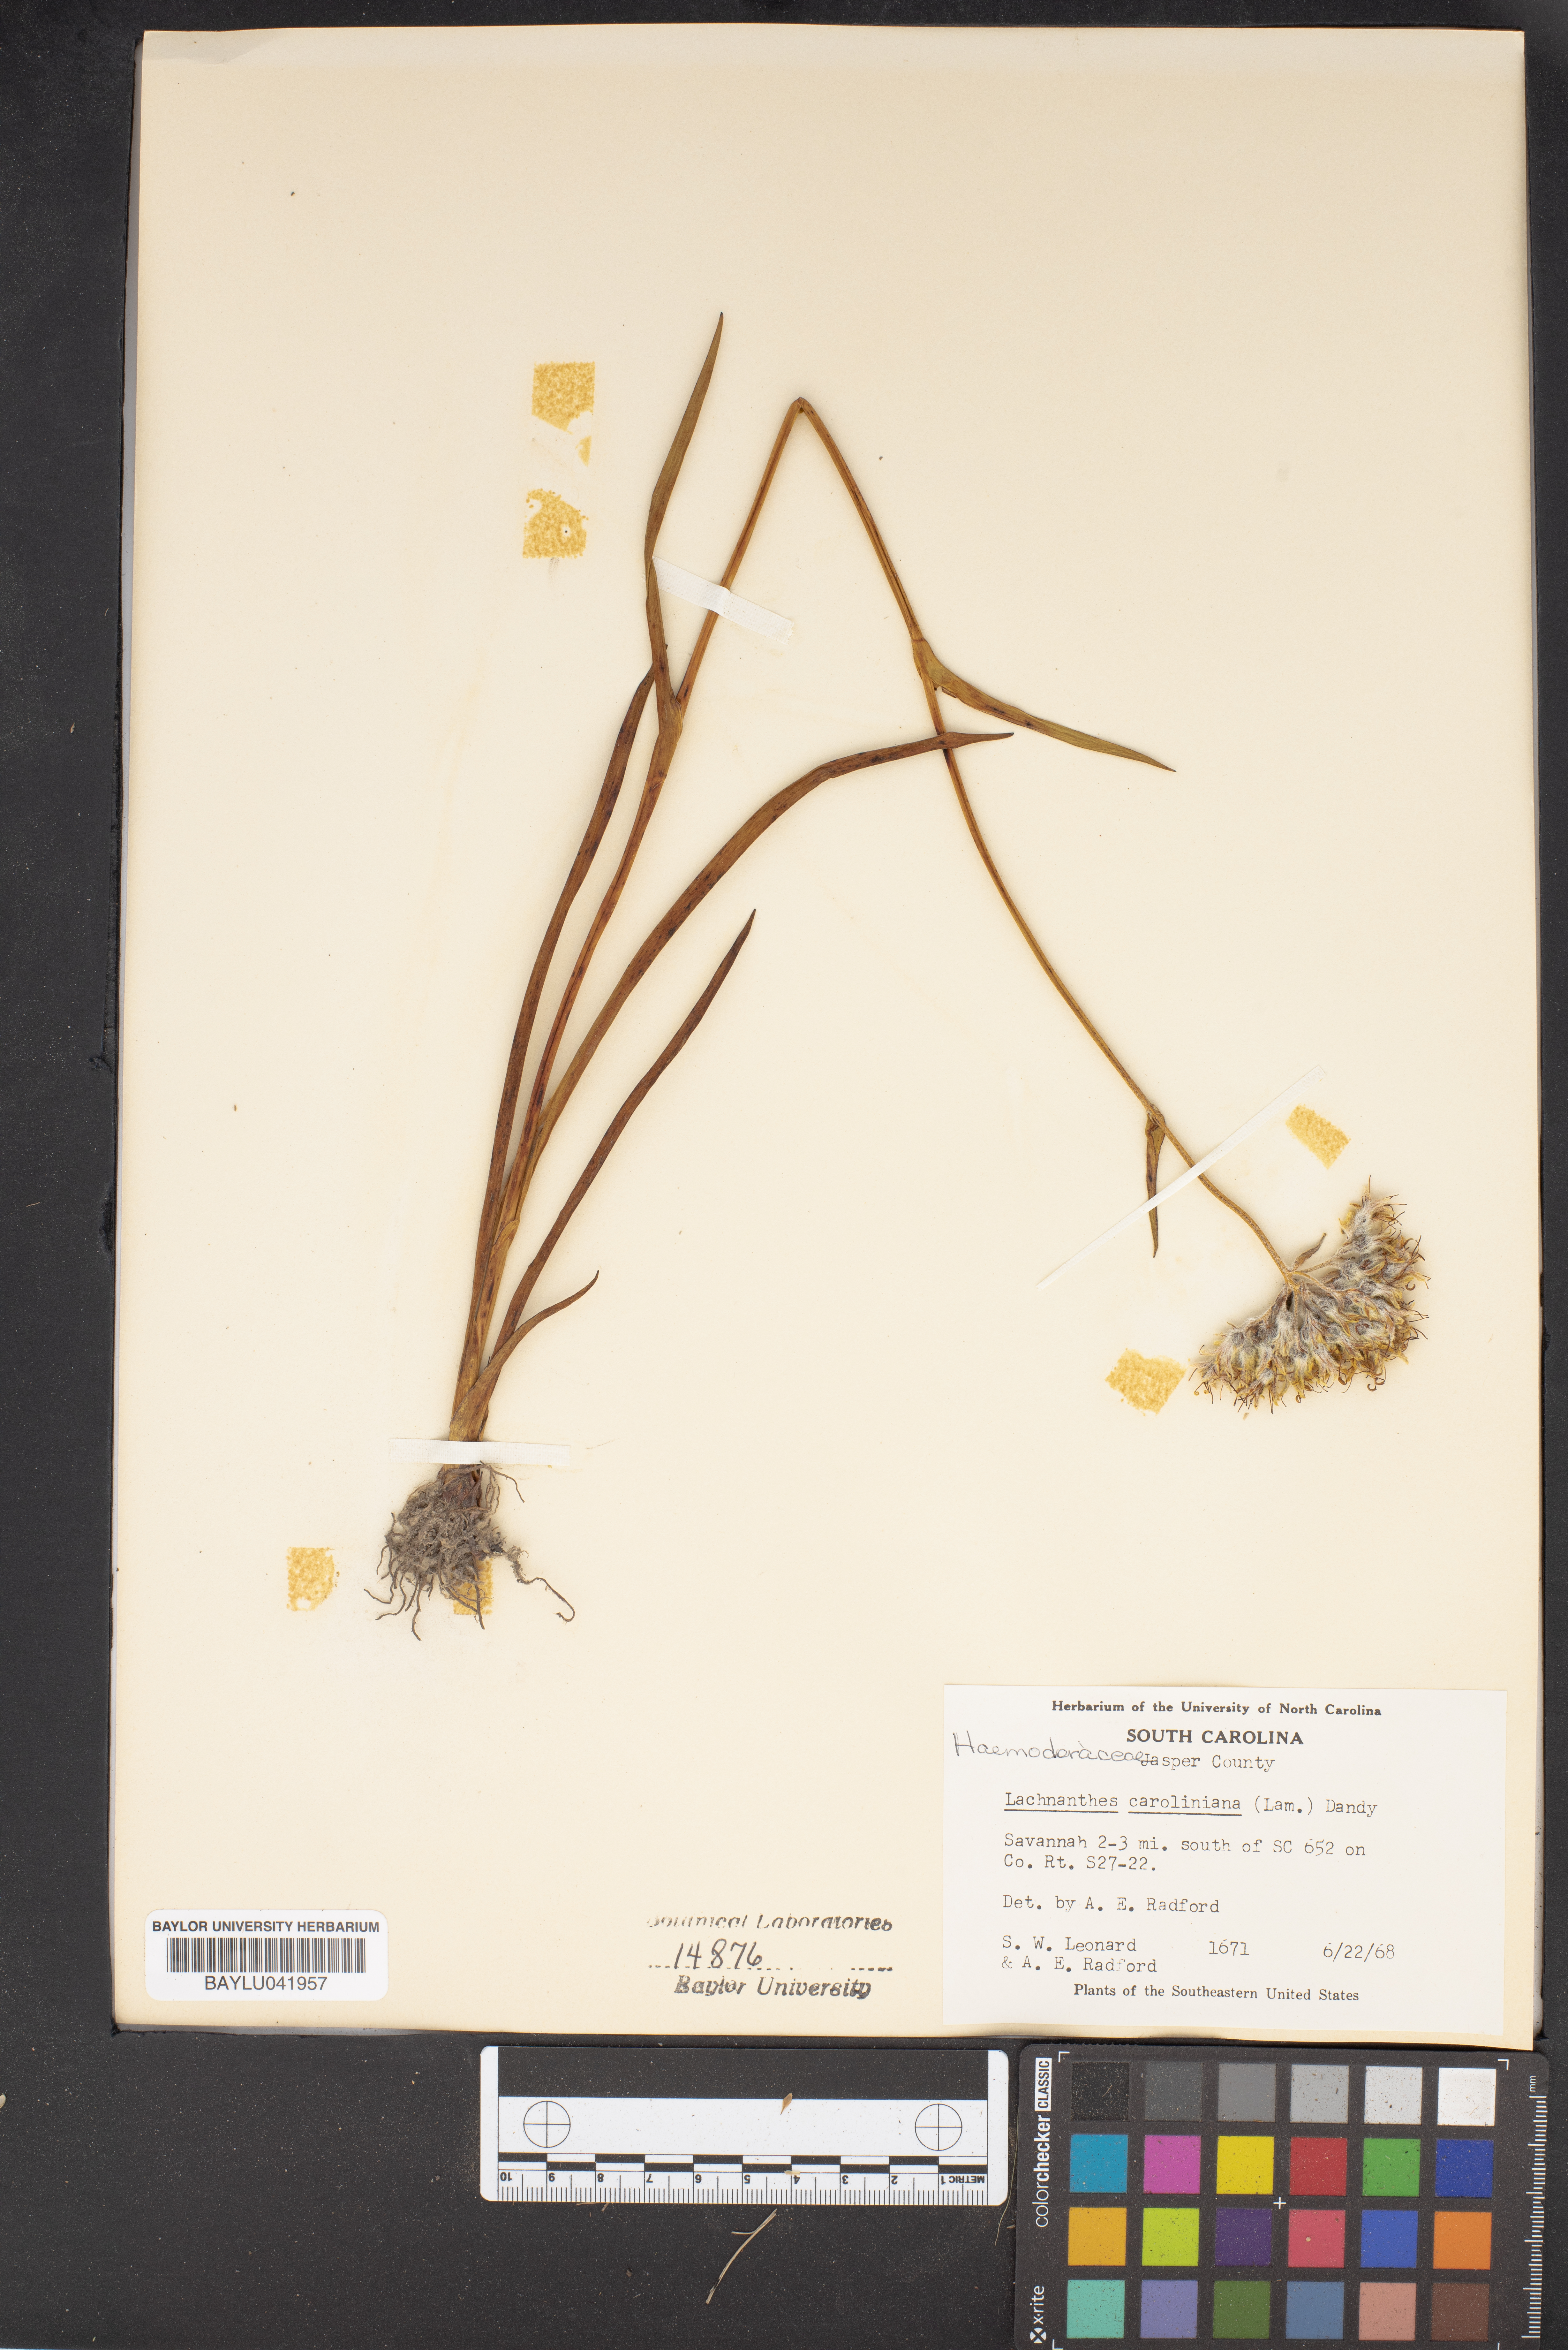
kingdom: Plantae
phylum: Tracheophyta
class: Liliopsida
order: Commelinales
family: Haemodoraceae
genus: Lachnanthes
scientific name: Lachnanthes caroliniana
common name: Carolina redroot
